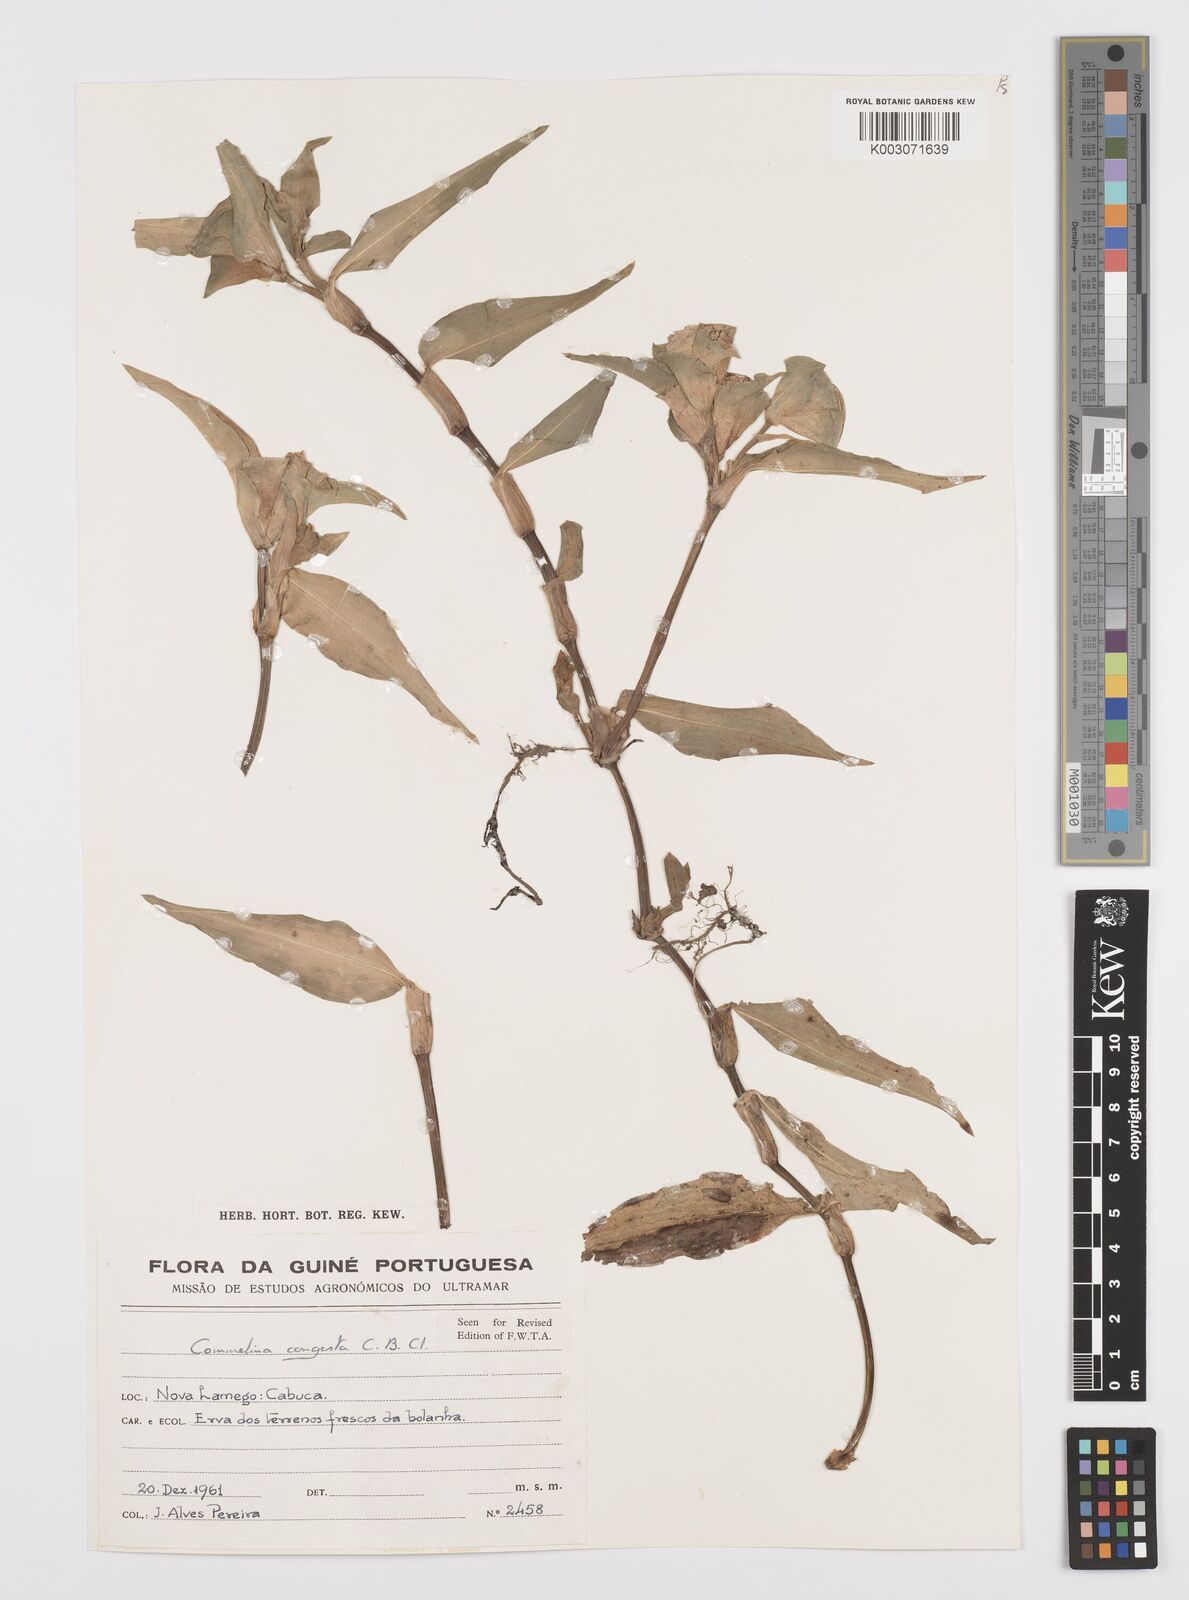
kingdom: Plantae
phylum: Tracheophyta
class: Liliopsida
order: Commelinales
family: Commelinaceae
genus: Commelina
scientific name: Commelina congesta
